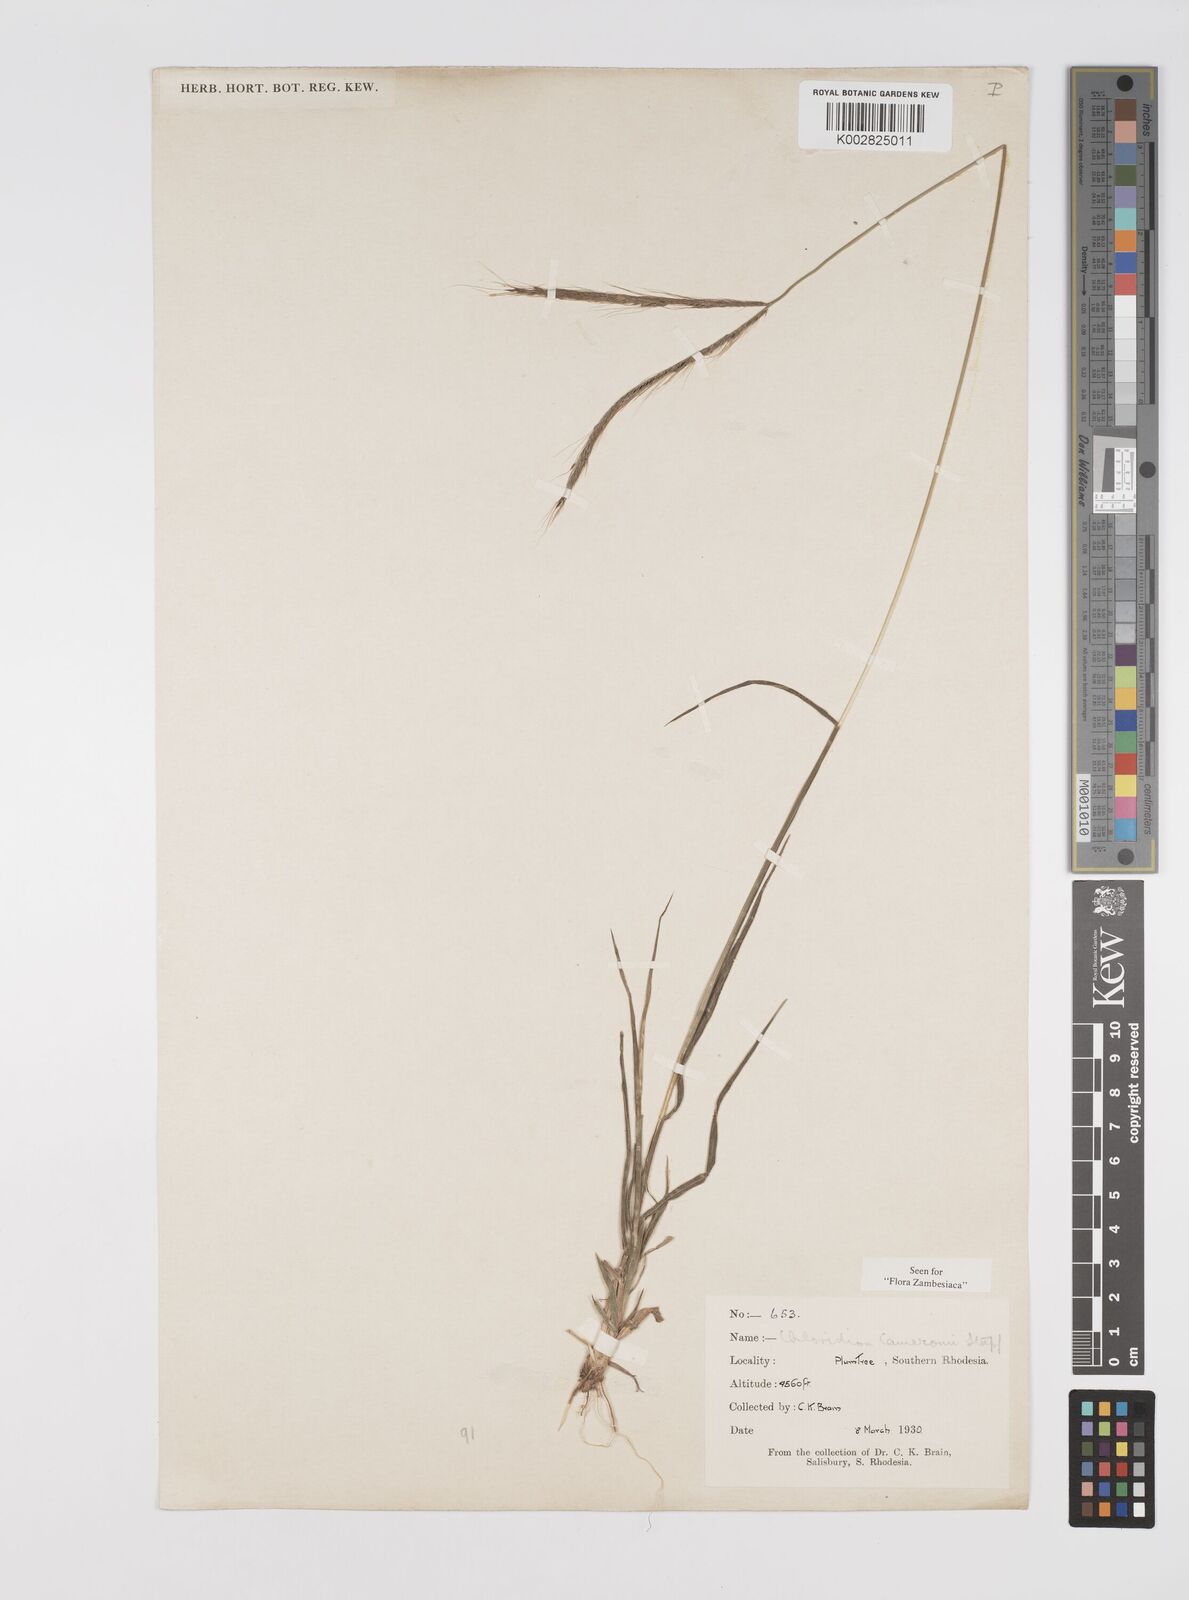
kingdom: Plantae
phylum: Tracheophyta
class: Liliopsida
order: Poales
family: Poaceae
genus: Stereochlaena
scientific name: Stereochlaena cameronii
